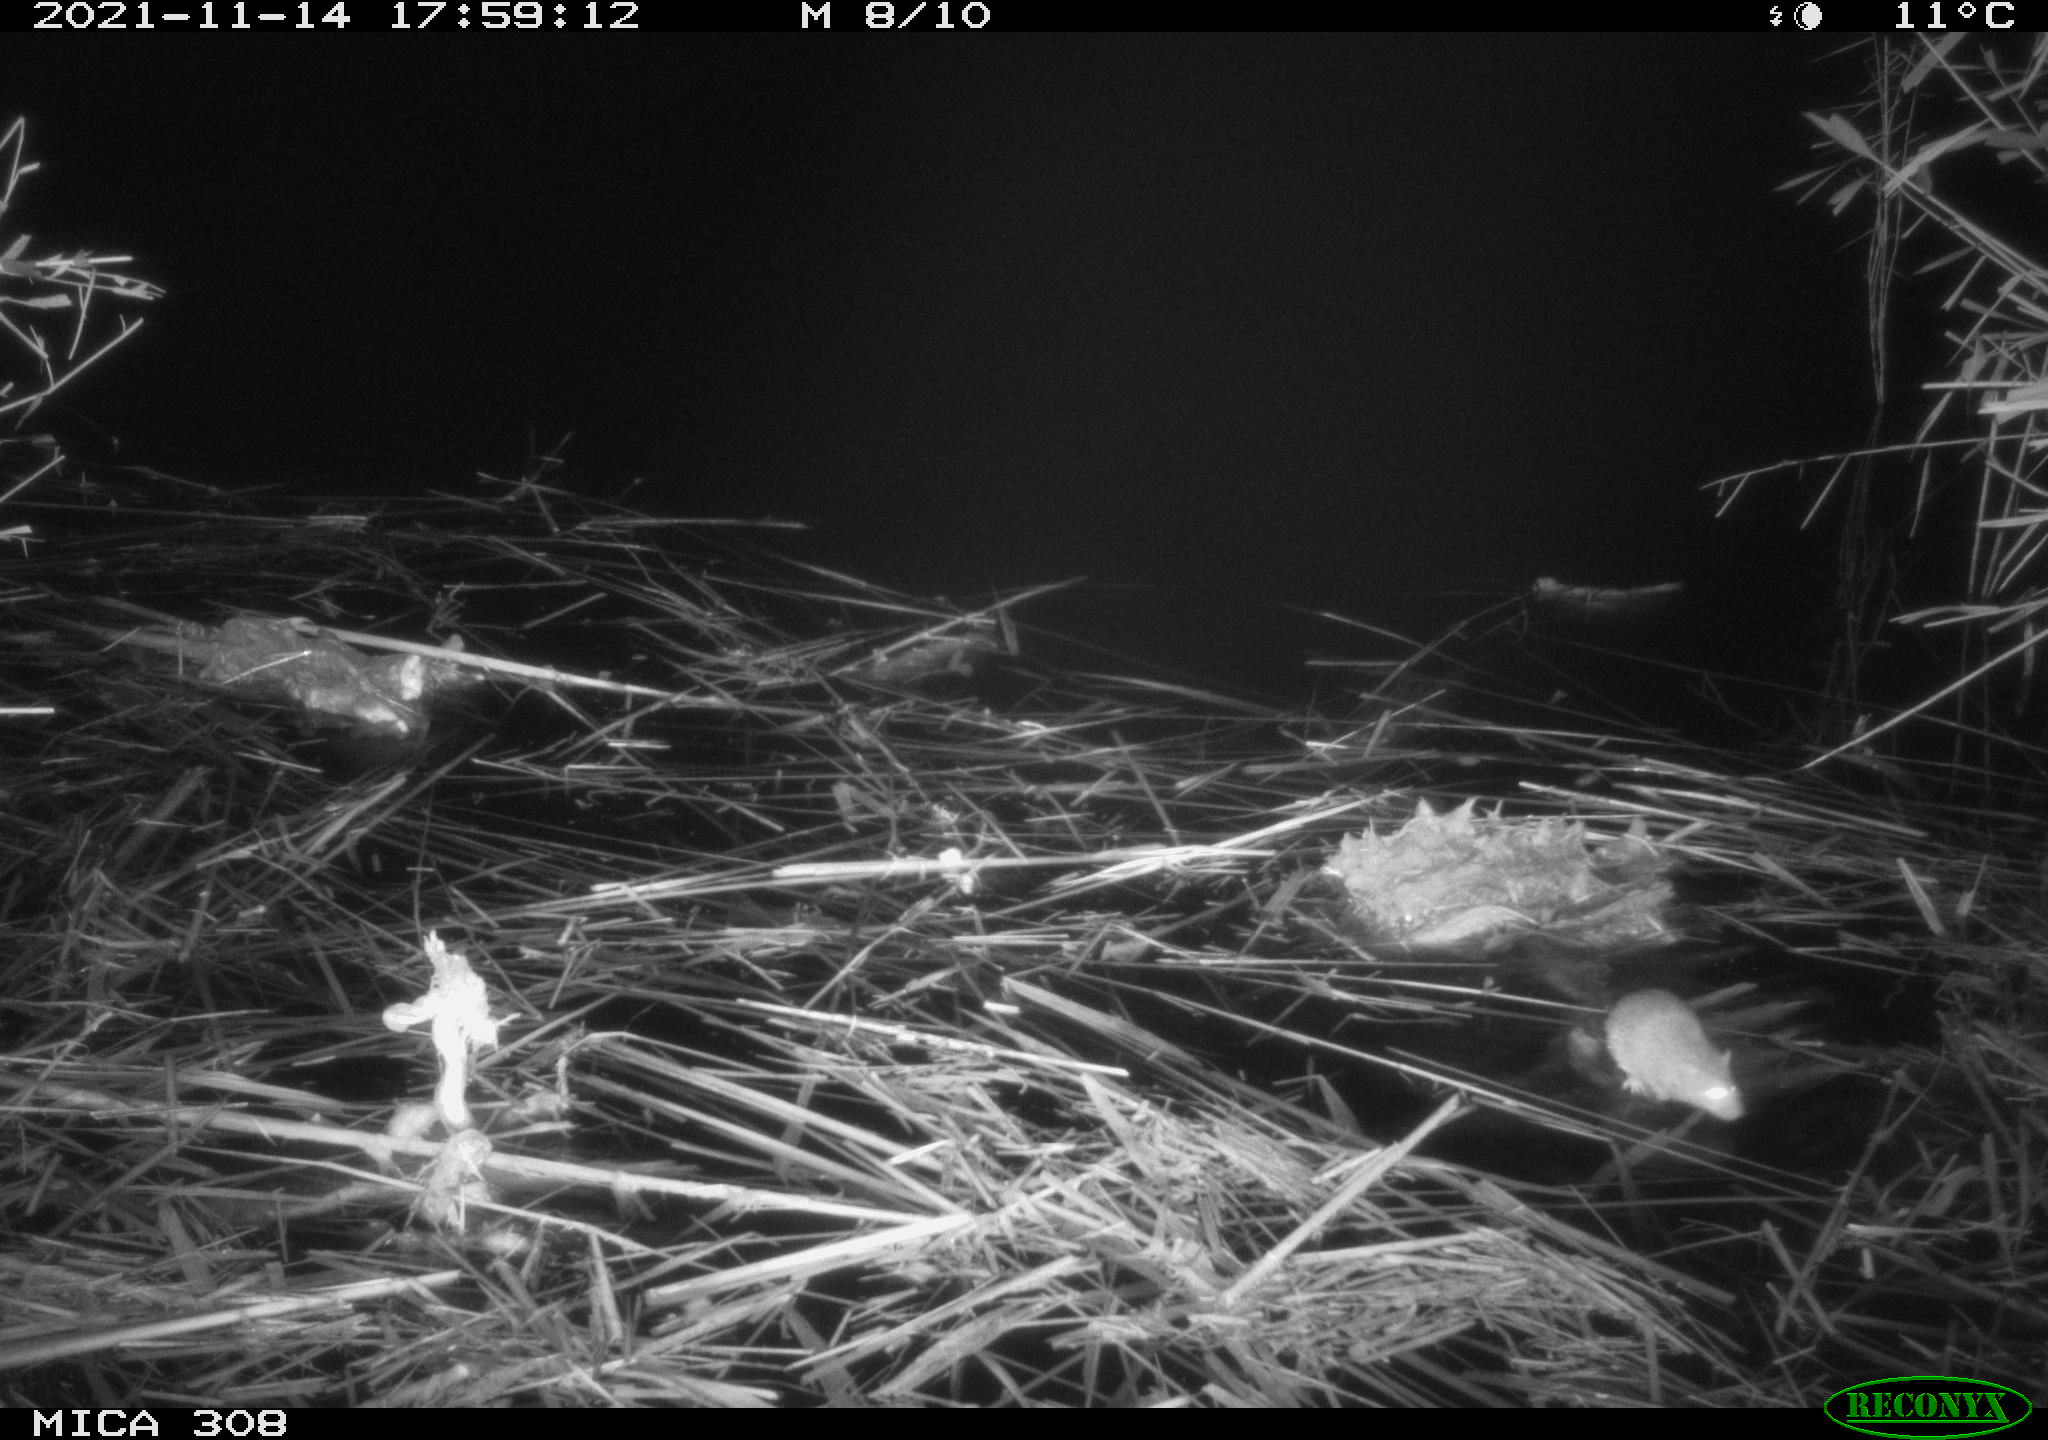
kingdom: Animalia
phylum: Chordata
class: Mammalia
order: Rodentia
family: Muridae
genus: Rattus
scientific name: Rattus norvegicus
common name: Brown rat
